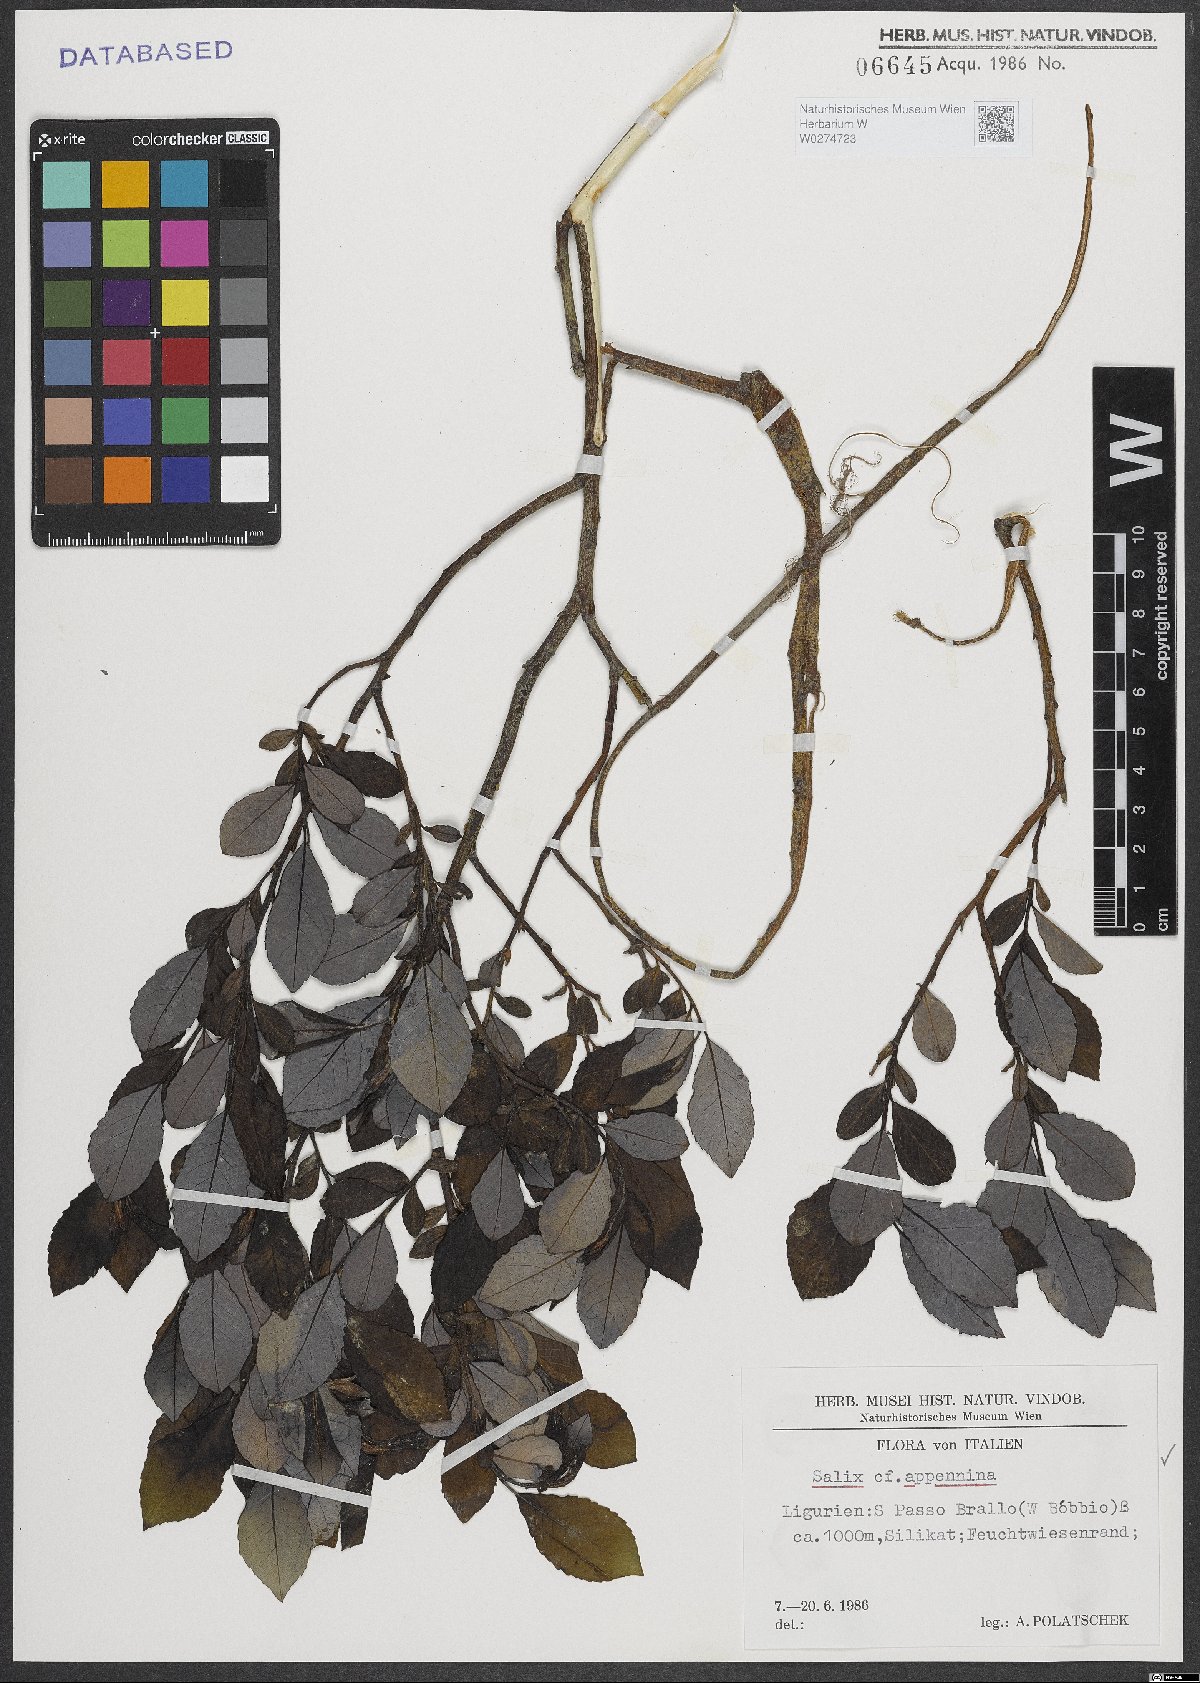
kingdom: Plantae
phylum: Tracheophyta
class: Magnoliopsida
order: Malpighiales
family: Salicaceae
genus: Salix
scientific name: Salix apennina
